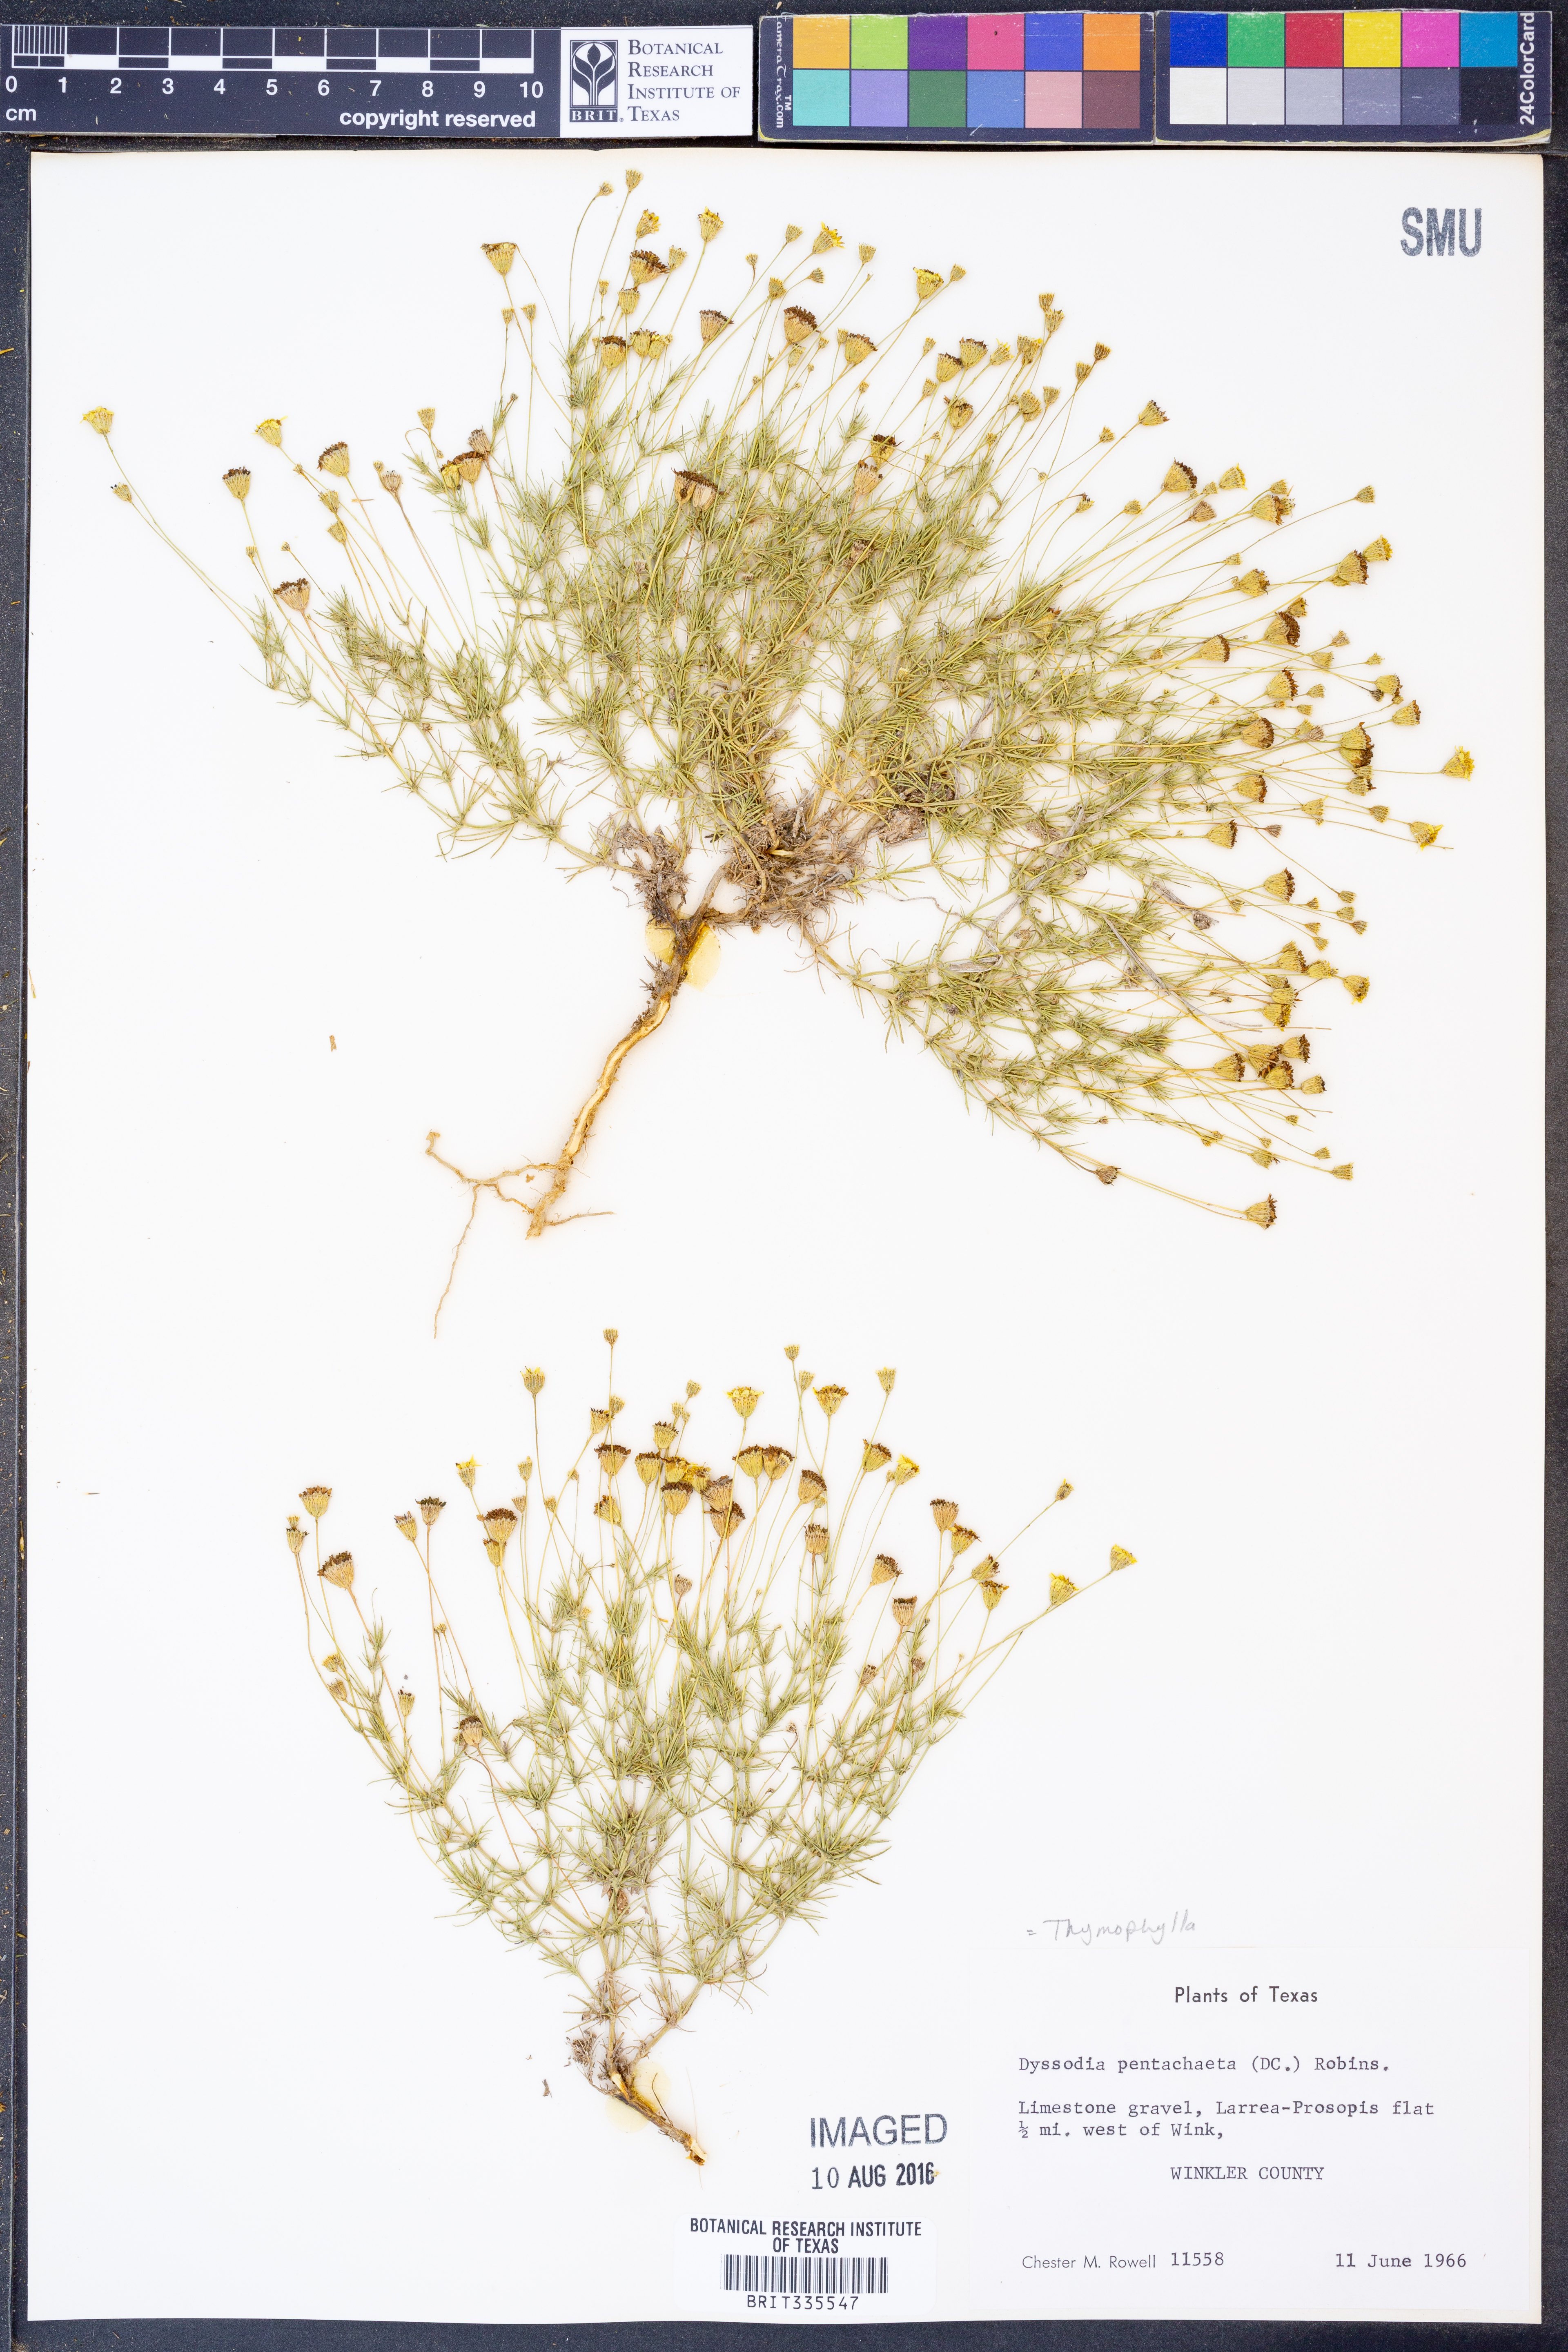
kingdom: Plantae
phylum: Tracheophyta
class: Magnoliopsida
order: Asterales
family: Asteraceae
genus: Thymophylla
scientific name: Thymophylla pentachaeta
